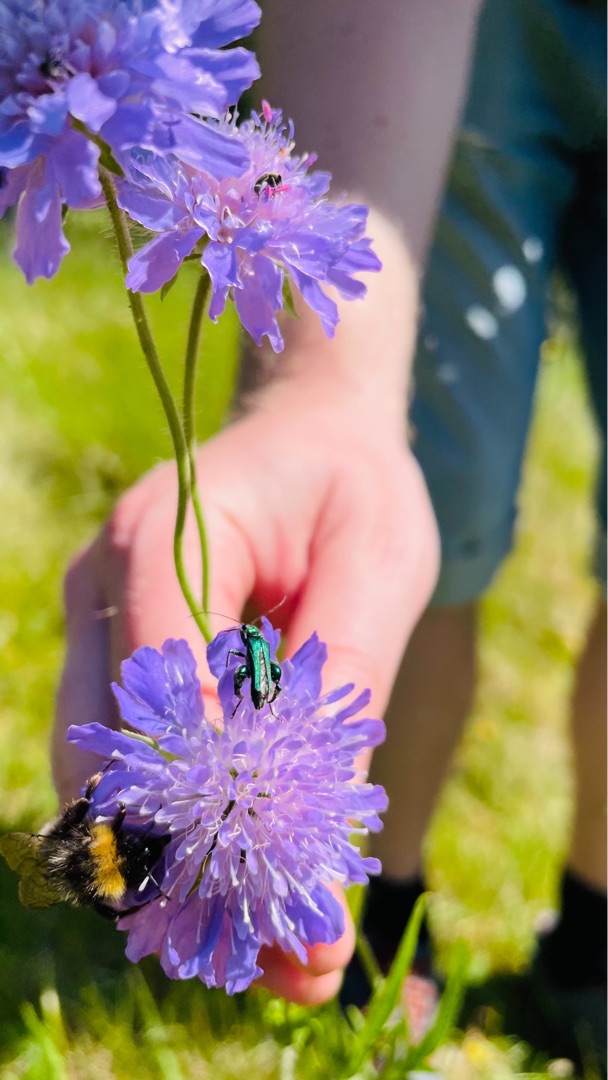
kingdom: Animalia
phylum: Arthropoda
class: Insecta
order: Coleoptera
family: Oedemeridae
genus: Oedemera
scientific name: Oedemera nobilis
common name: Tyklårssolbille
